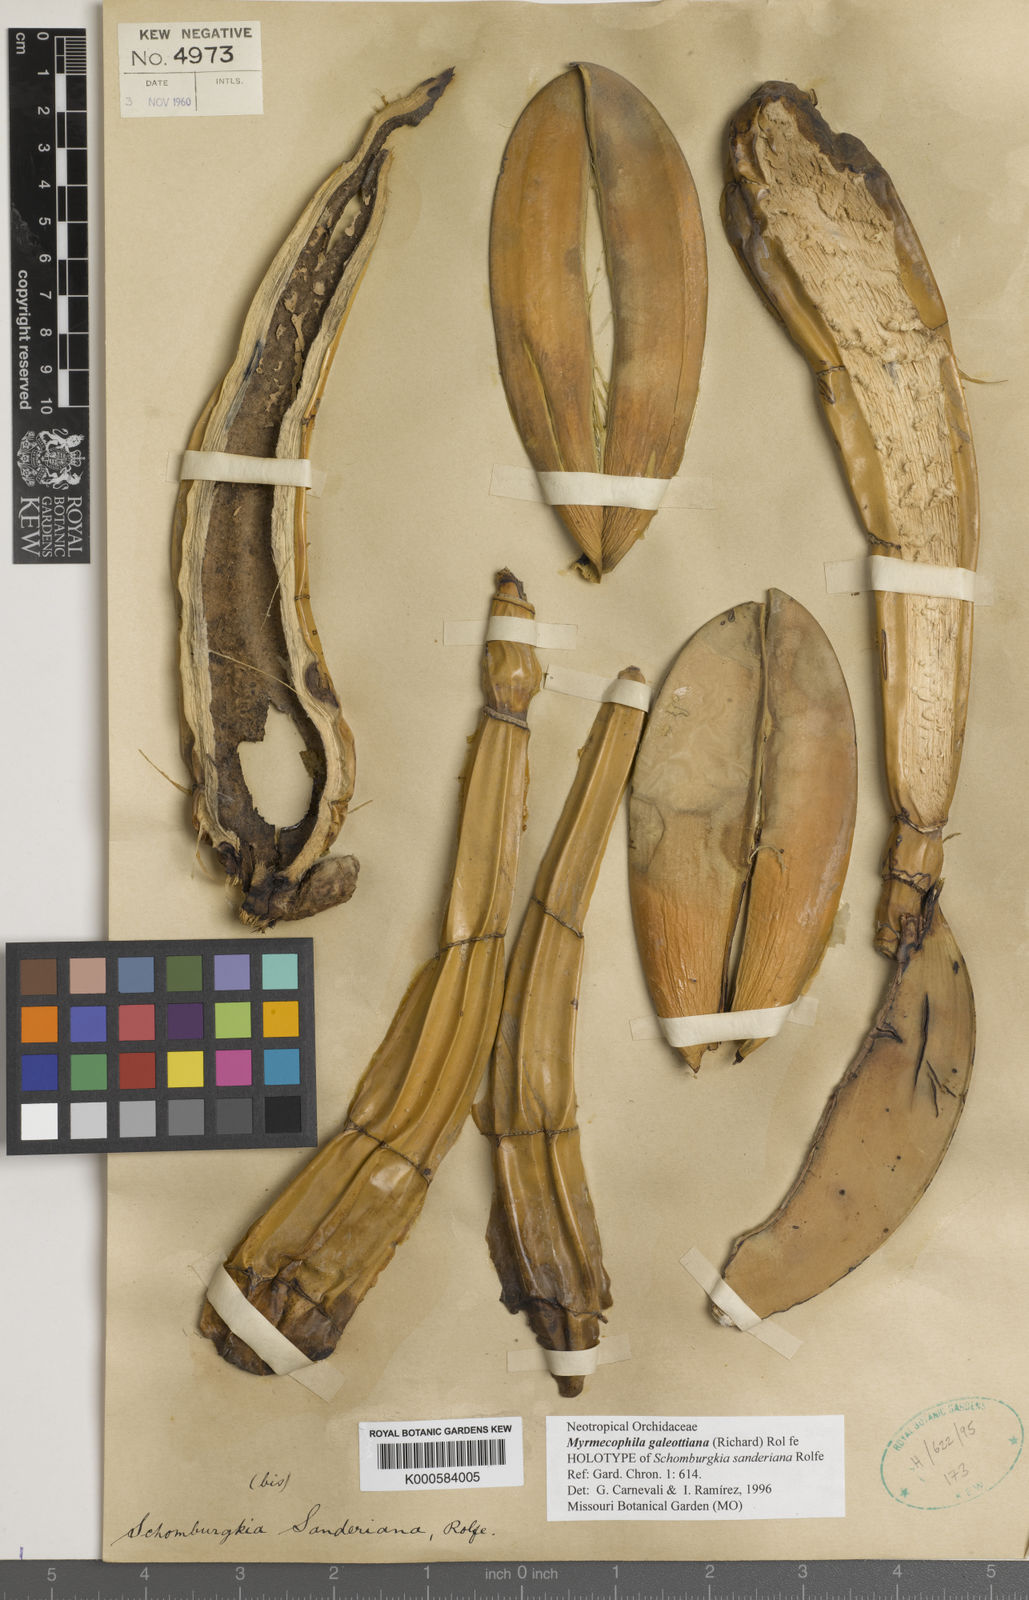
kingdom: Plantae
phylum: Tracheophyta
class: Liliopsida
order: Asparagales
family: Orchidaceae
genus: Myrmecophila
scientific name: Myrmecophila galeottiana
